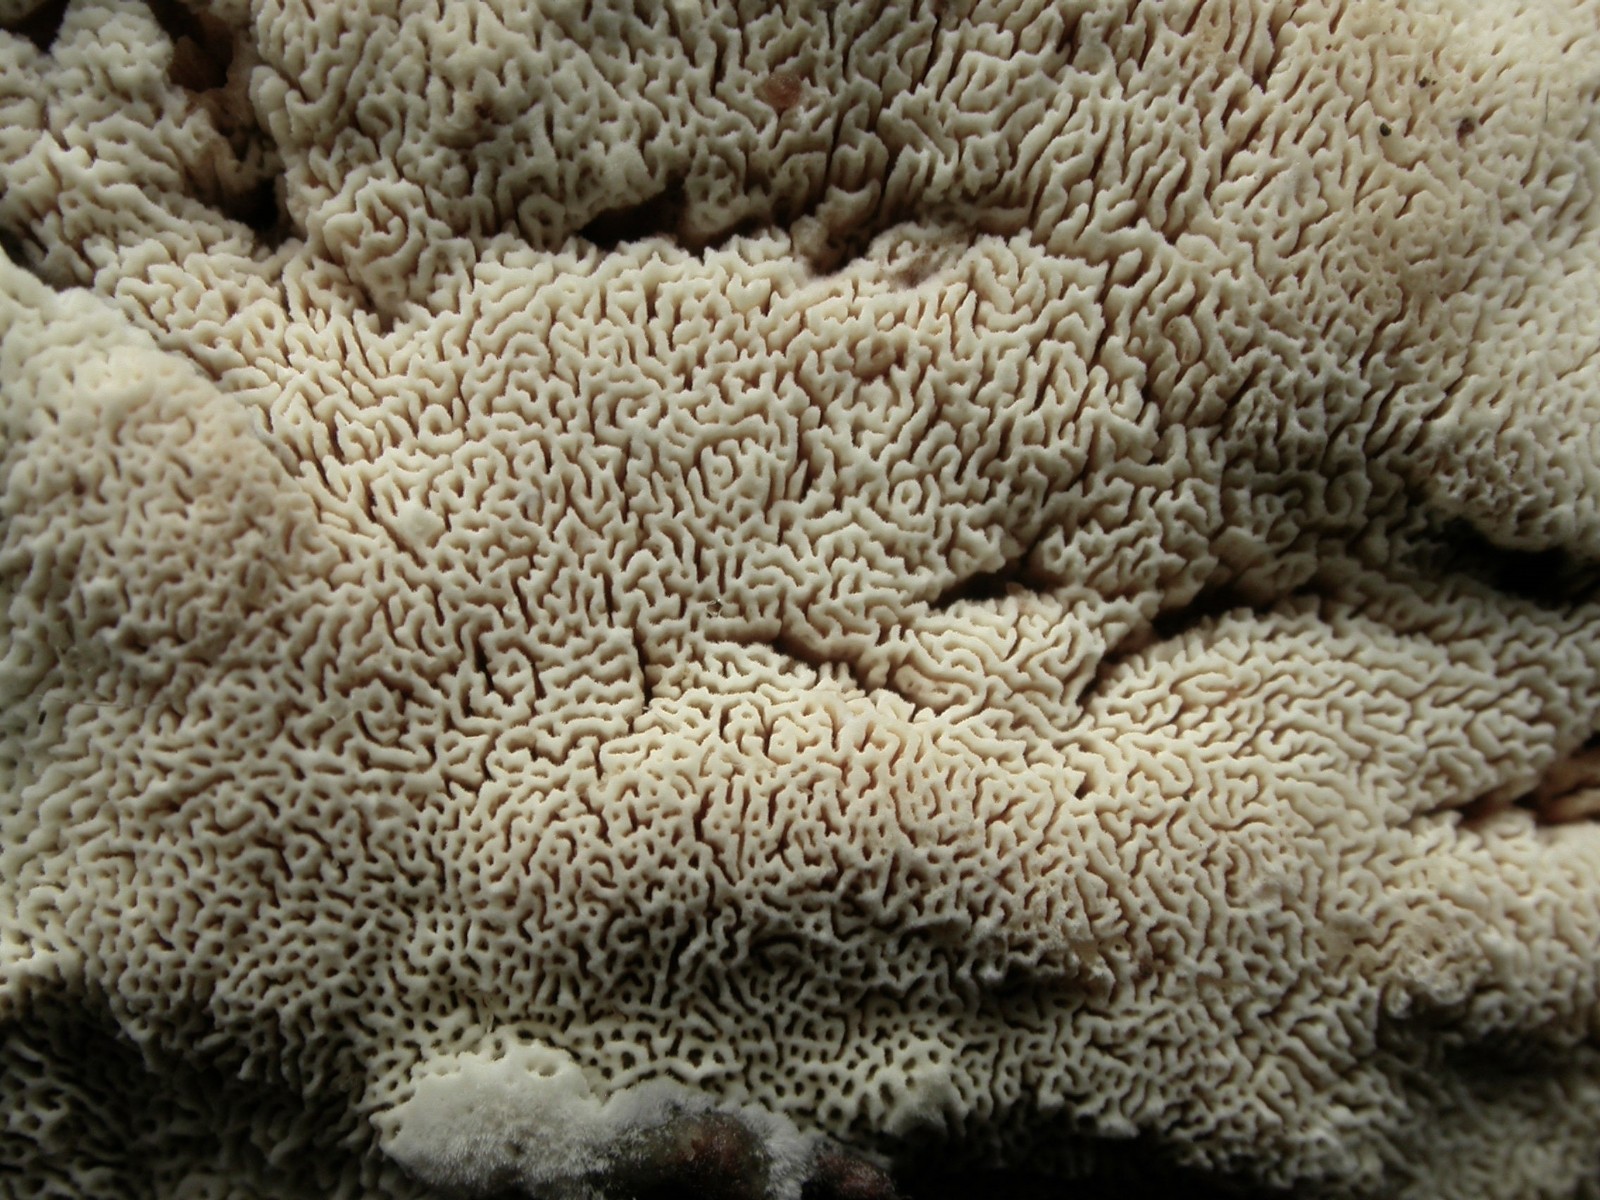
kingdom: Fungi
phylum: Basidiomycota
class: Agaricomycetes
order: Hymenochaetales
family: Schizoporaceae
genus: Xylodon
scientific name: Xylodon subtropicus
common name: labyrint-tandsvamp
